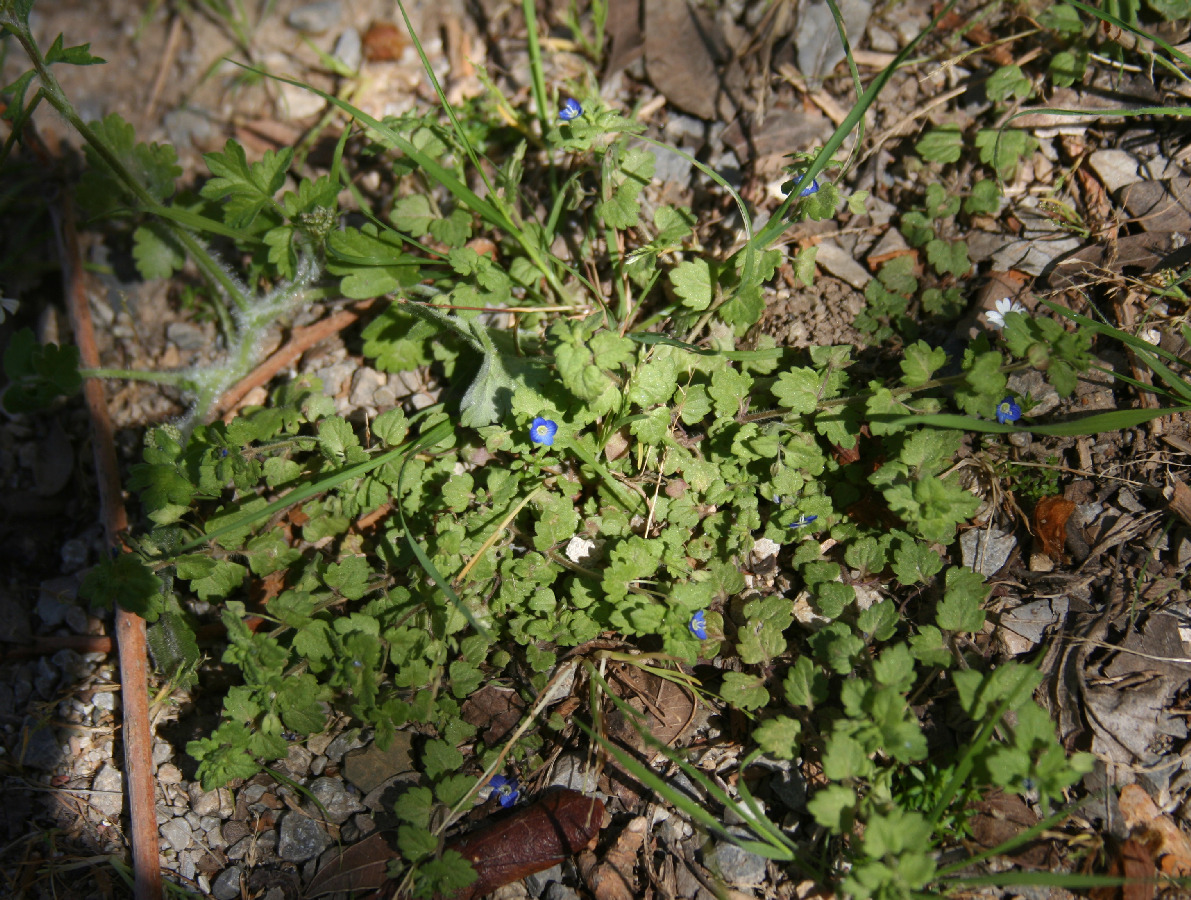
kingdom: Plantae
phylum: Tracheophyta
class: Magnoliopsida
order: Lamiales
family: Plantaginaceae
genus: Veronica
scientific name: Veronica persica
